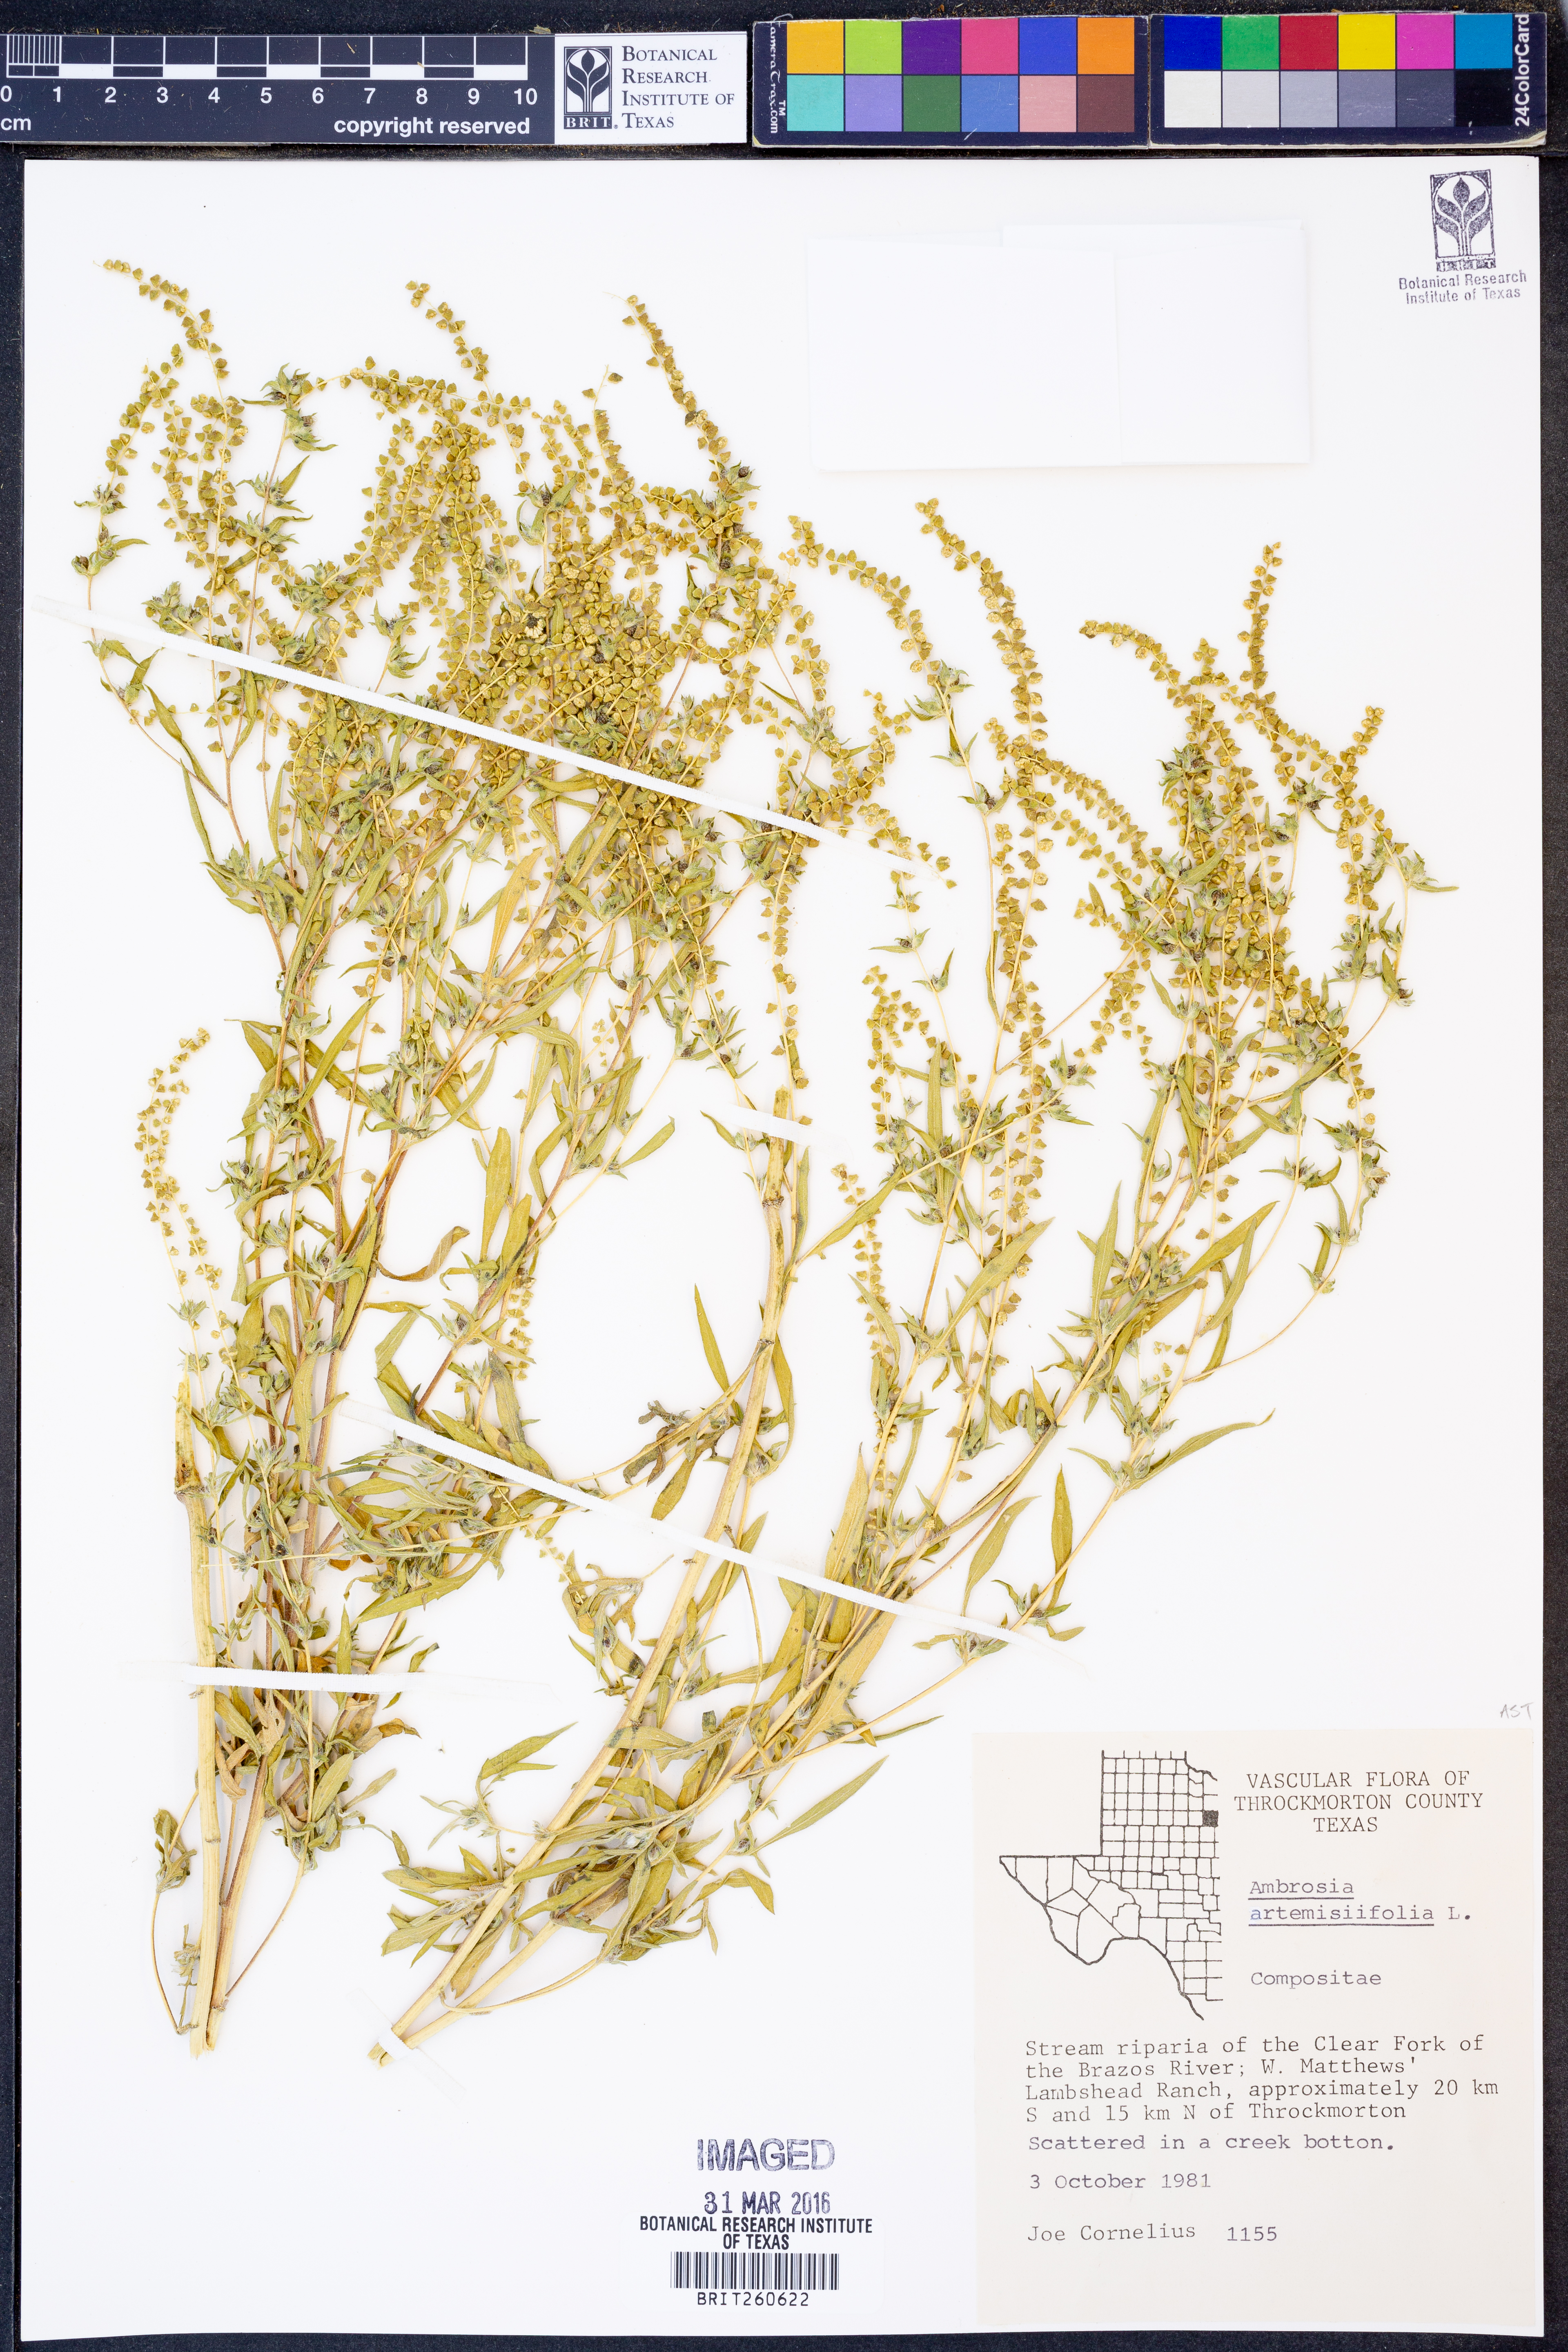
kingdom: Plantae
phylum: Tracheophyta
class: Magnoliopsida
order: Asterales
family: Asteraceae
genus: Ambrosia
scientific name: Ambrosia artemisiifolia
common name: Annual ragweed
